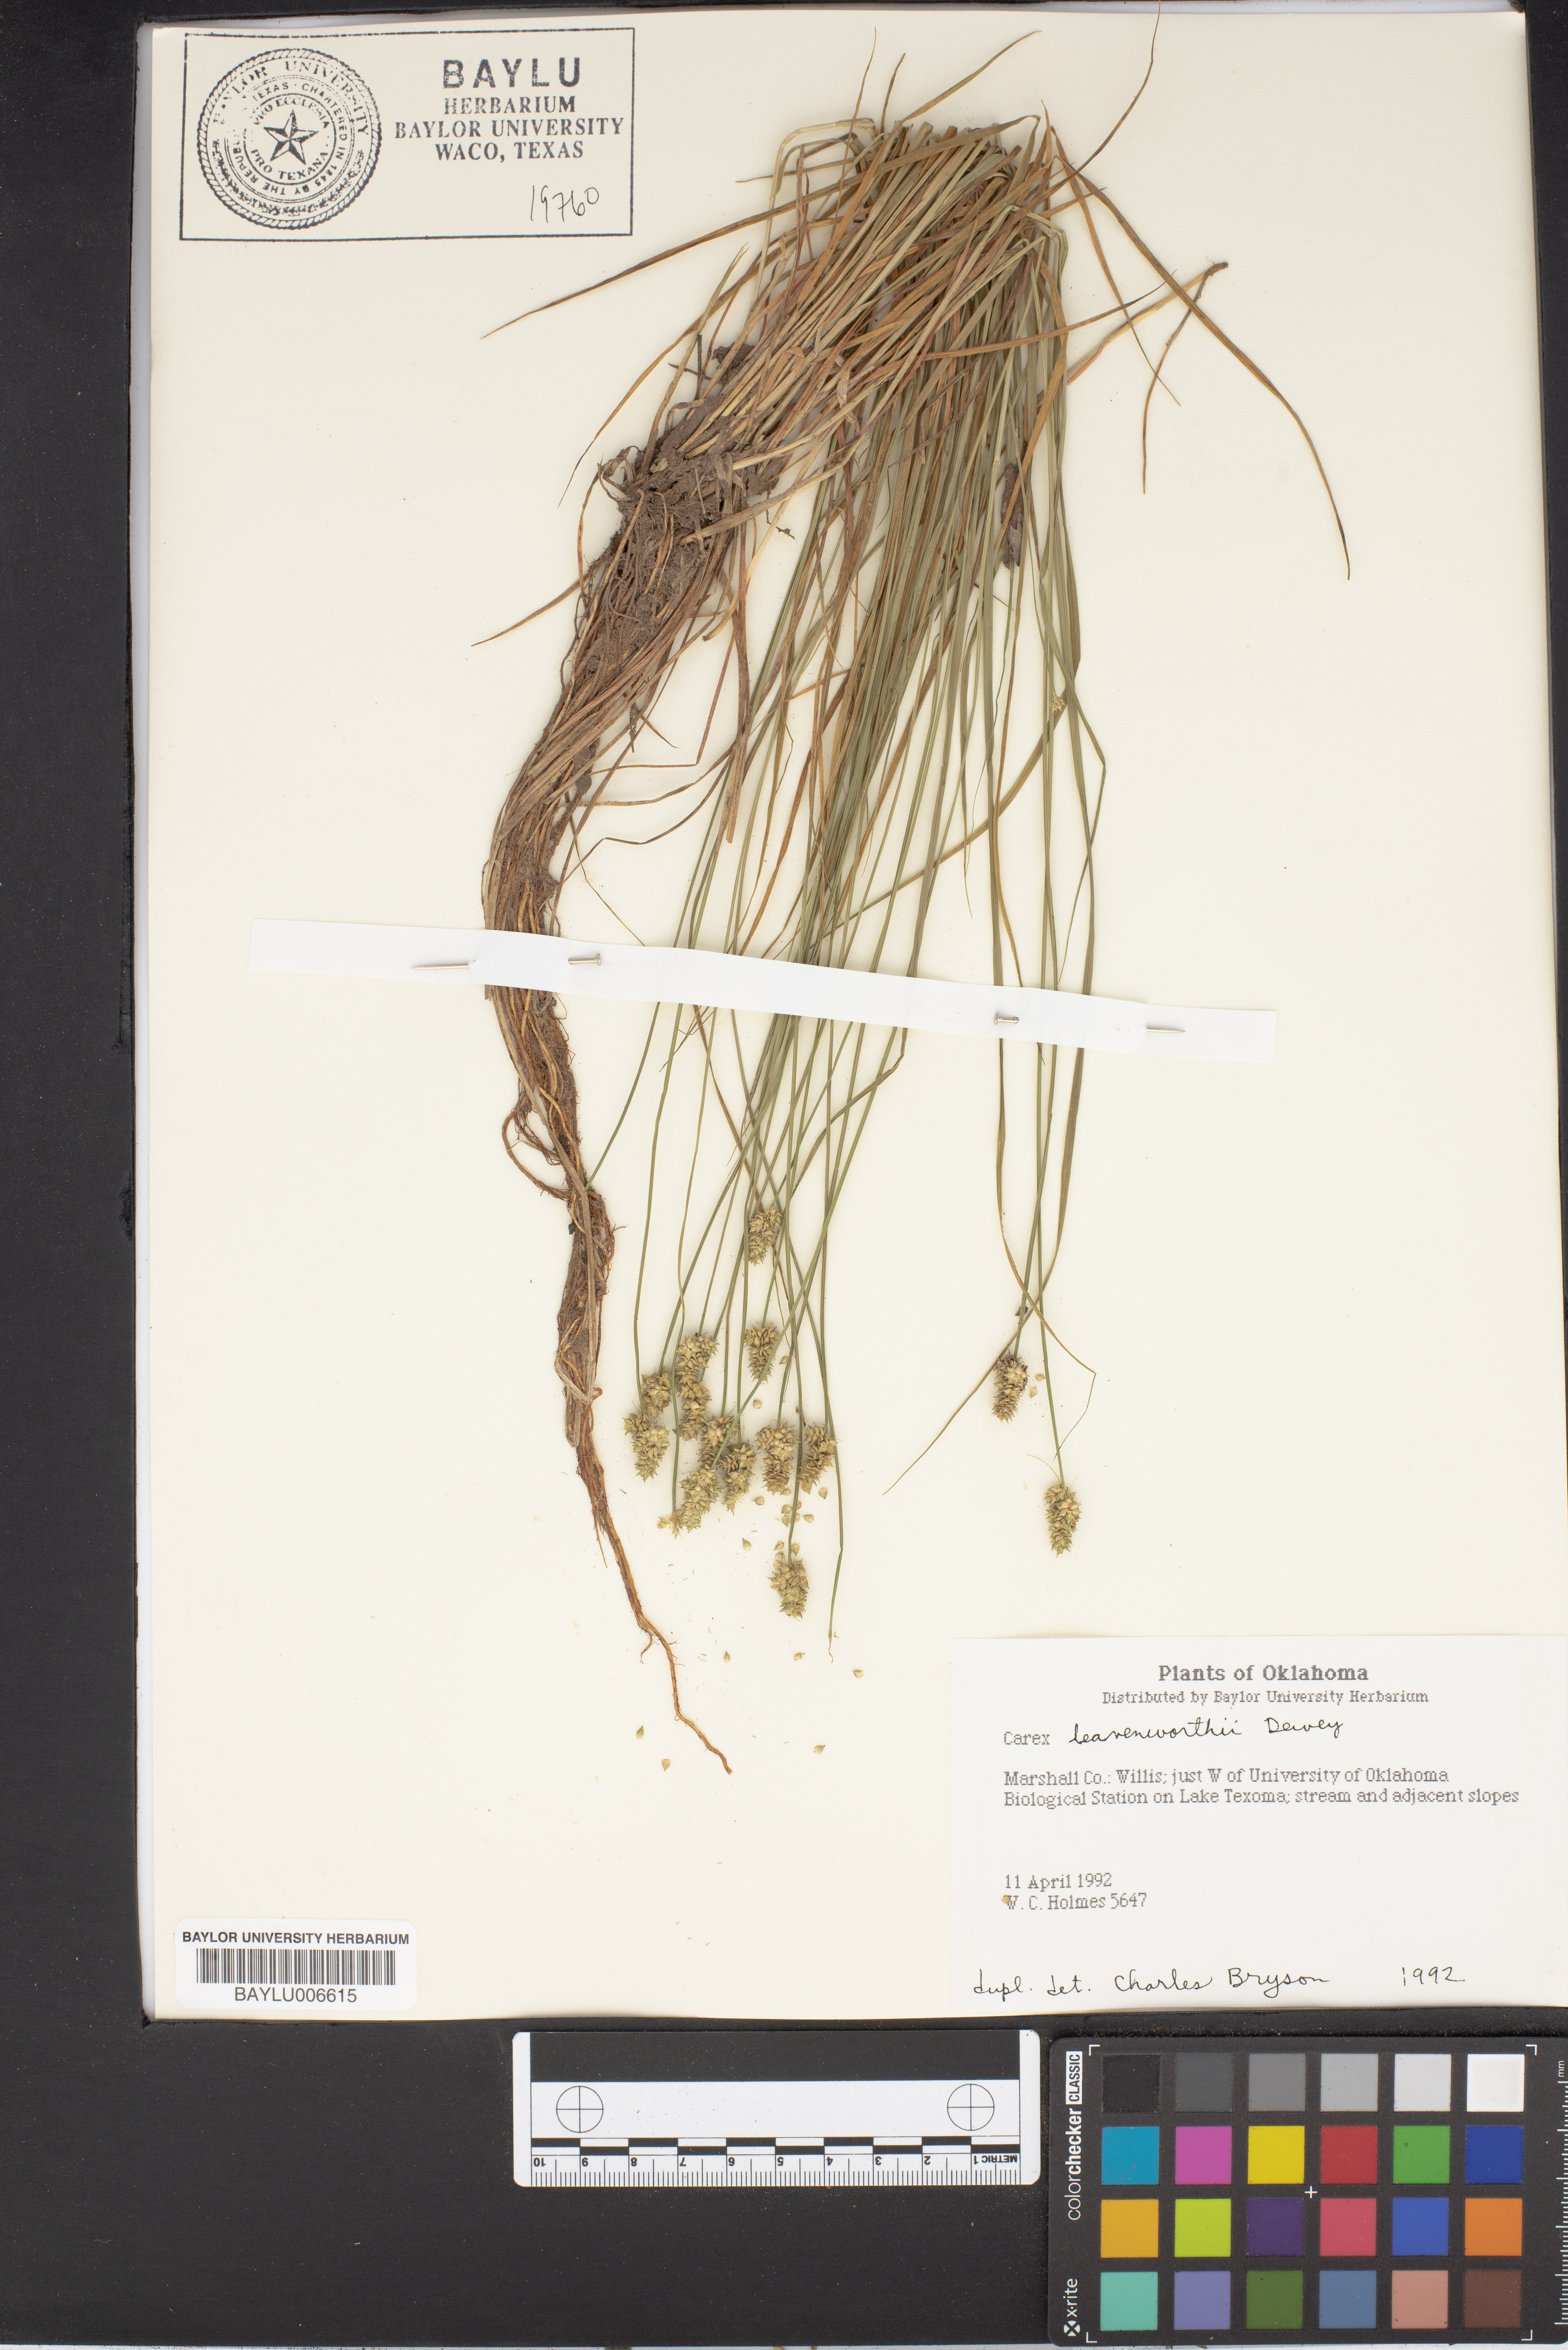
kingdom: Plantae
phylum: Tracheophyta
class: Liliopsida
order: Poales
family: Cyperaceae
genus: Carex
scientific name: Carex leavenworthii
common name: Leavenworth's bracted sedge
